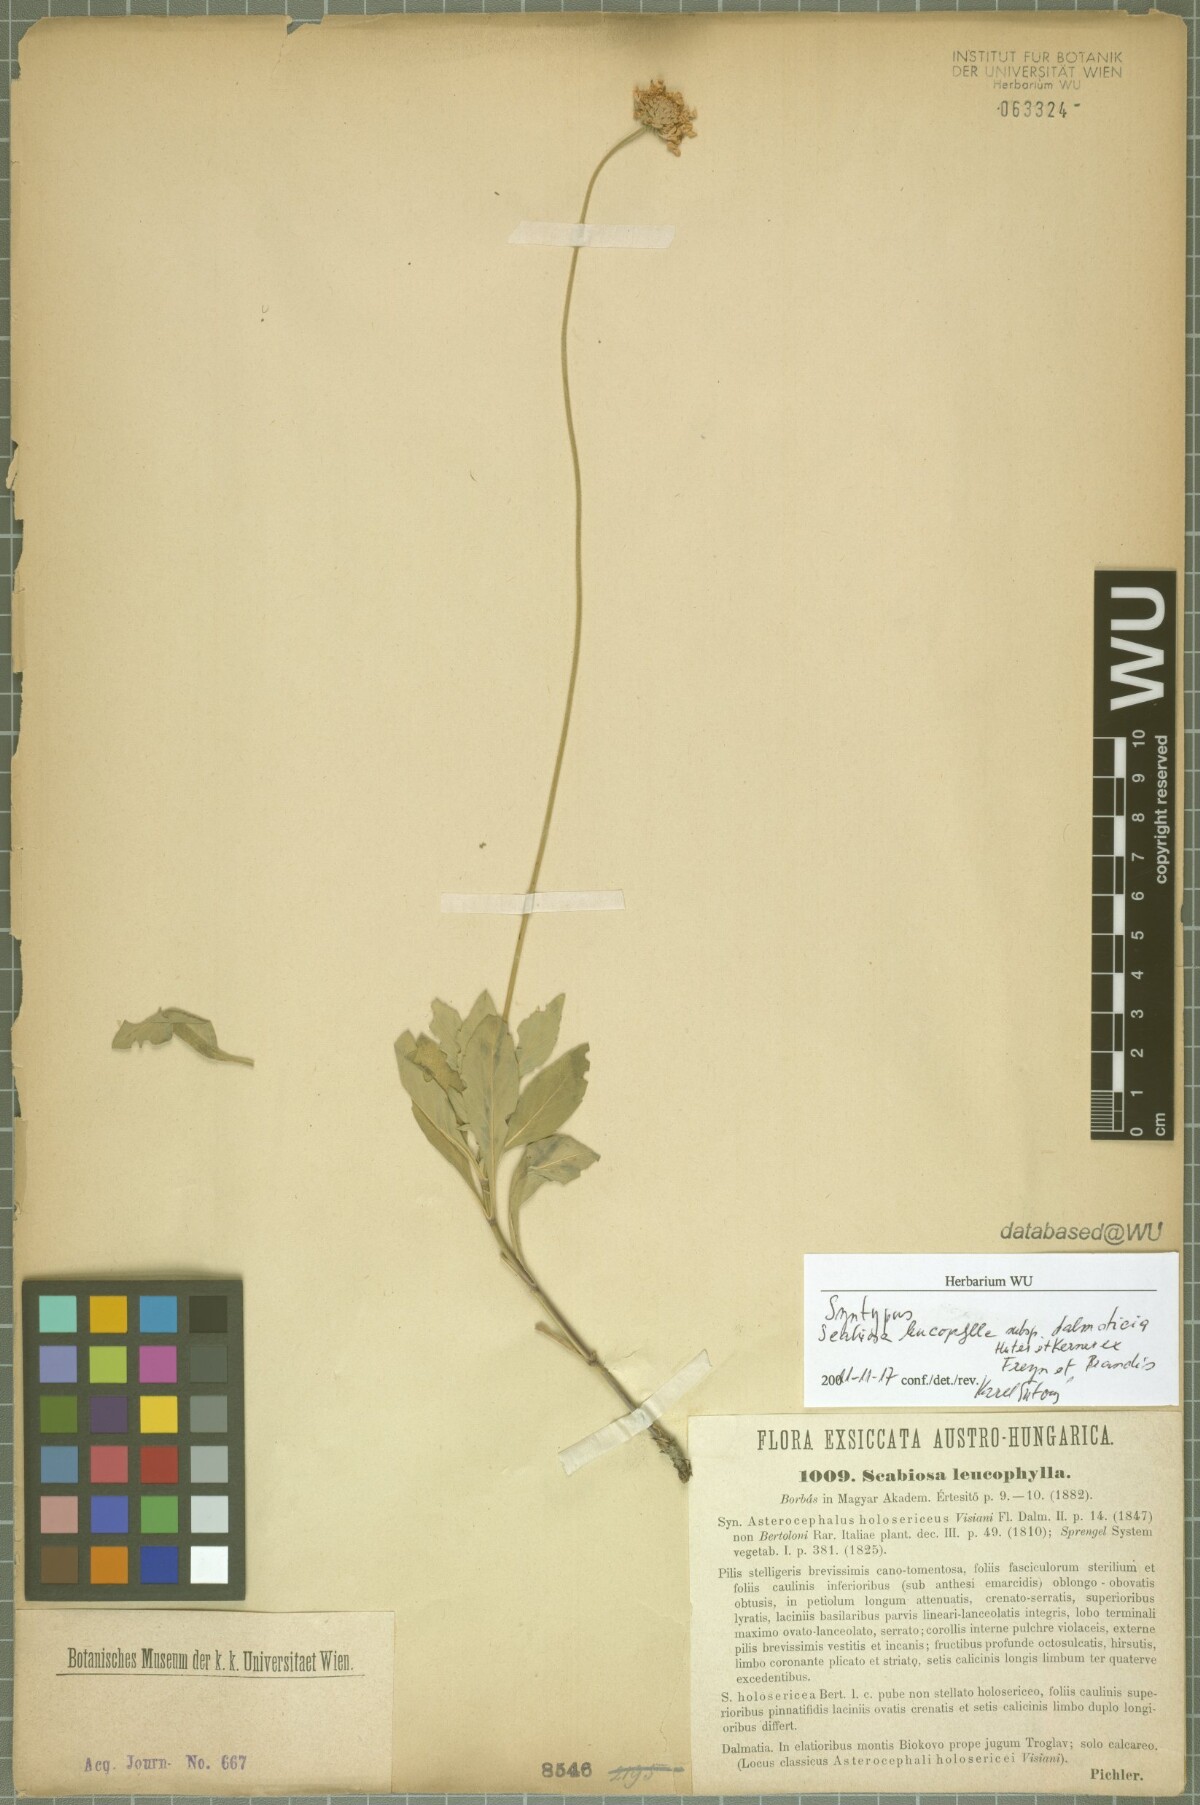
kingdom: Plantae
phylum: Tracheophyta
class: Magnoliopsida
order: Dipsacales
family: Caprifoliaceae
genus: Scabiosa
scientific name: Scabiosa cinerea
